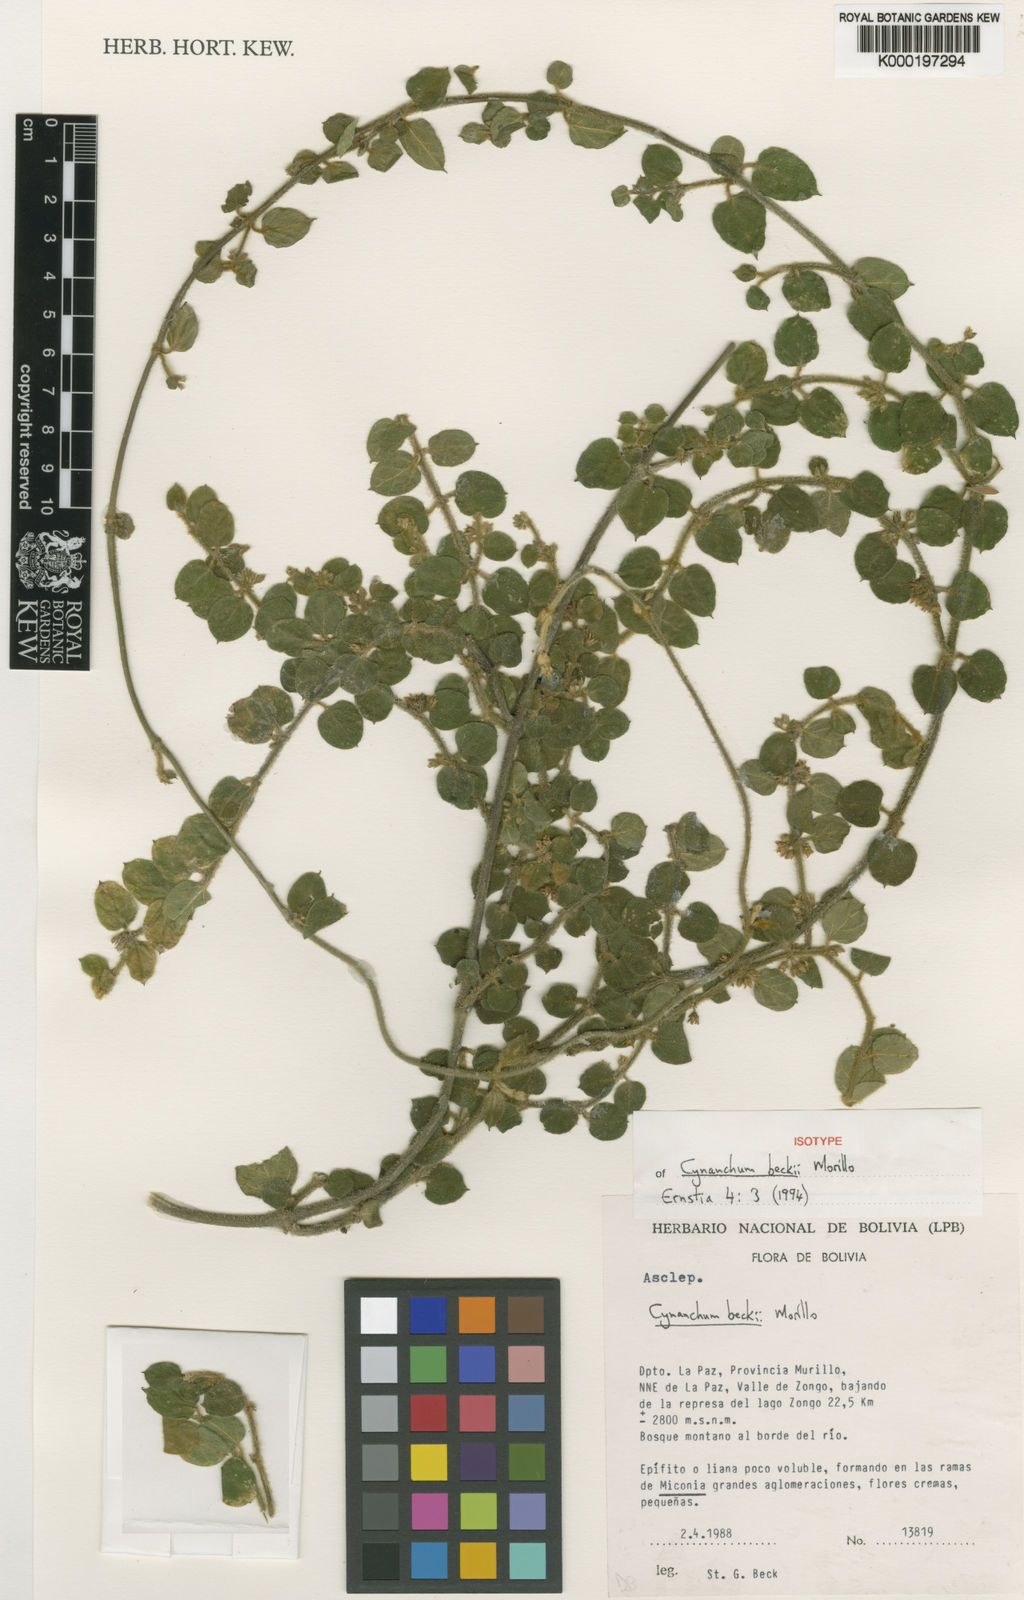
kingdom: Plantae
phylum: Tracheophyta
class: Magnoliopsida
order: Gentianales
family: Apocynaceae
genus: Scyphostelma
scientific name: Scyphostelma beckii
